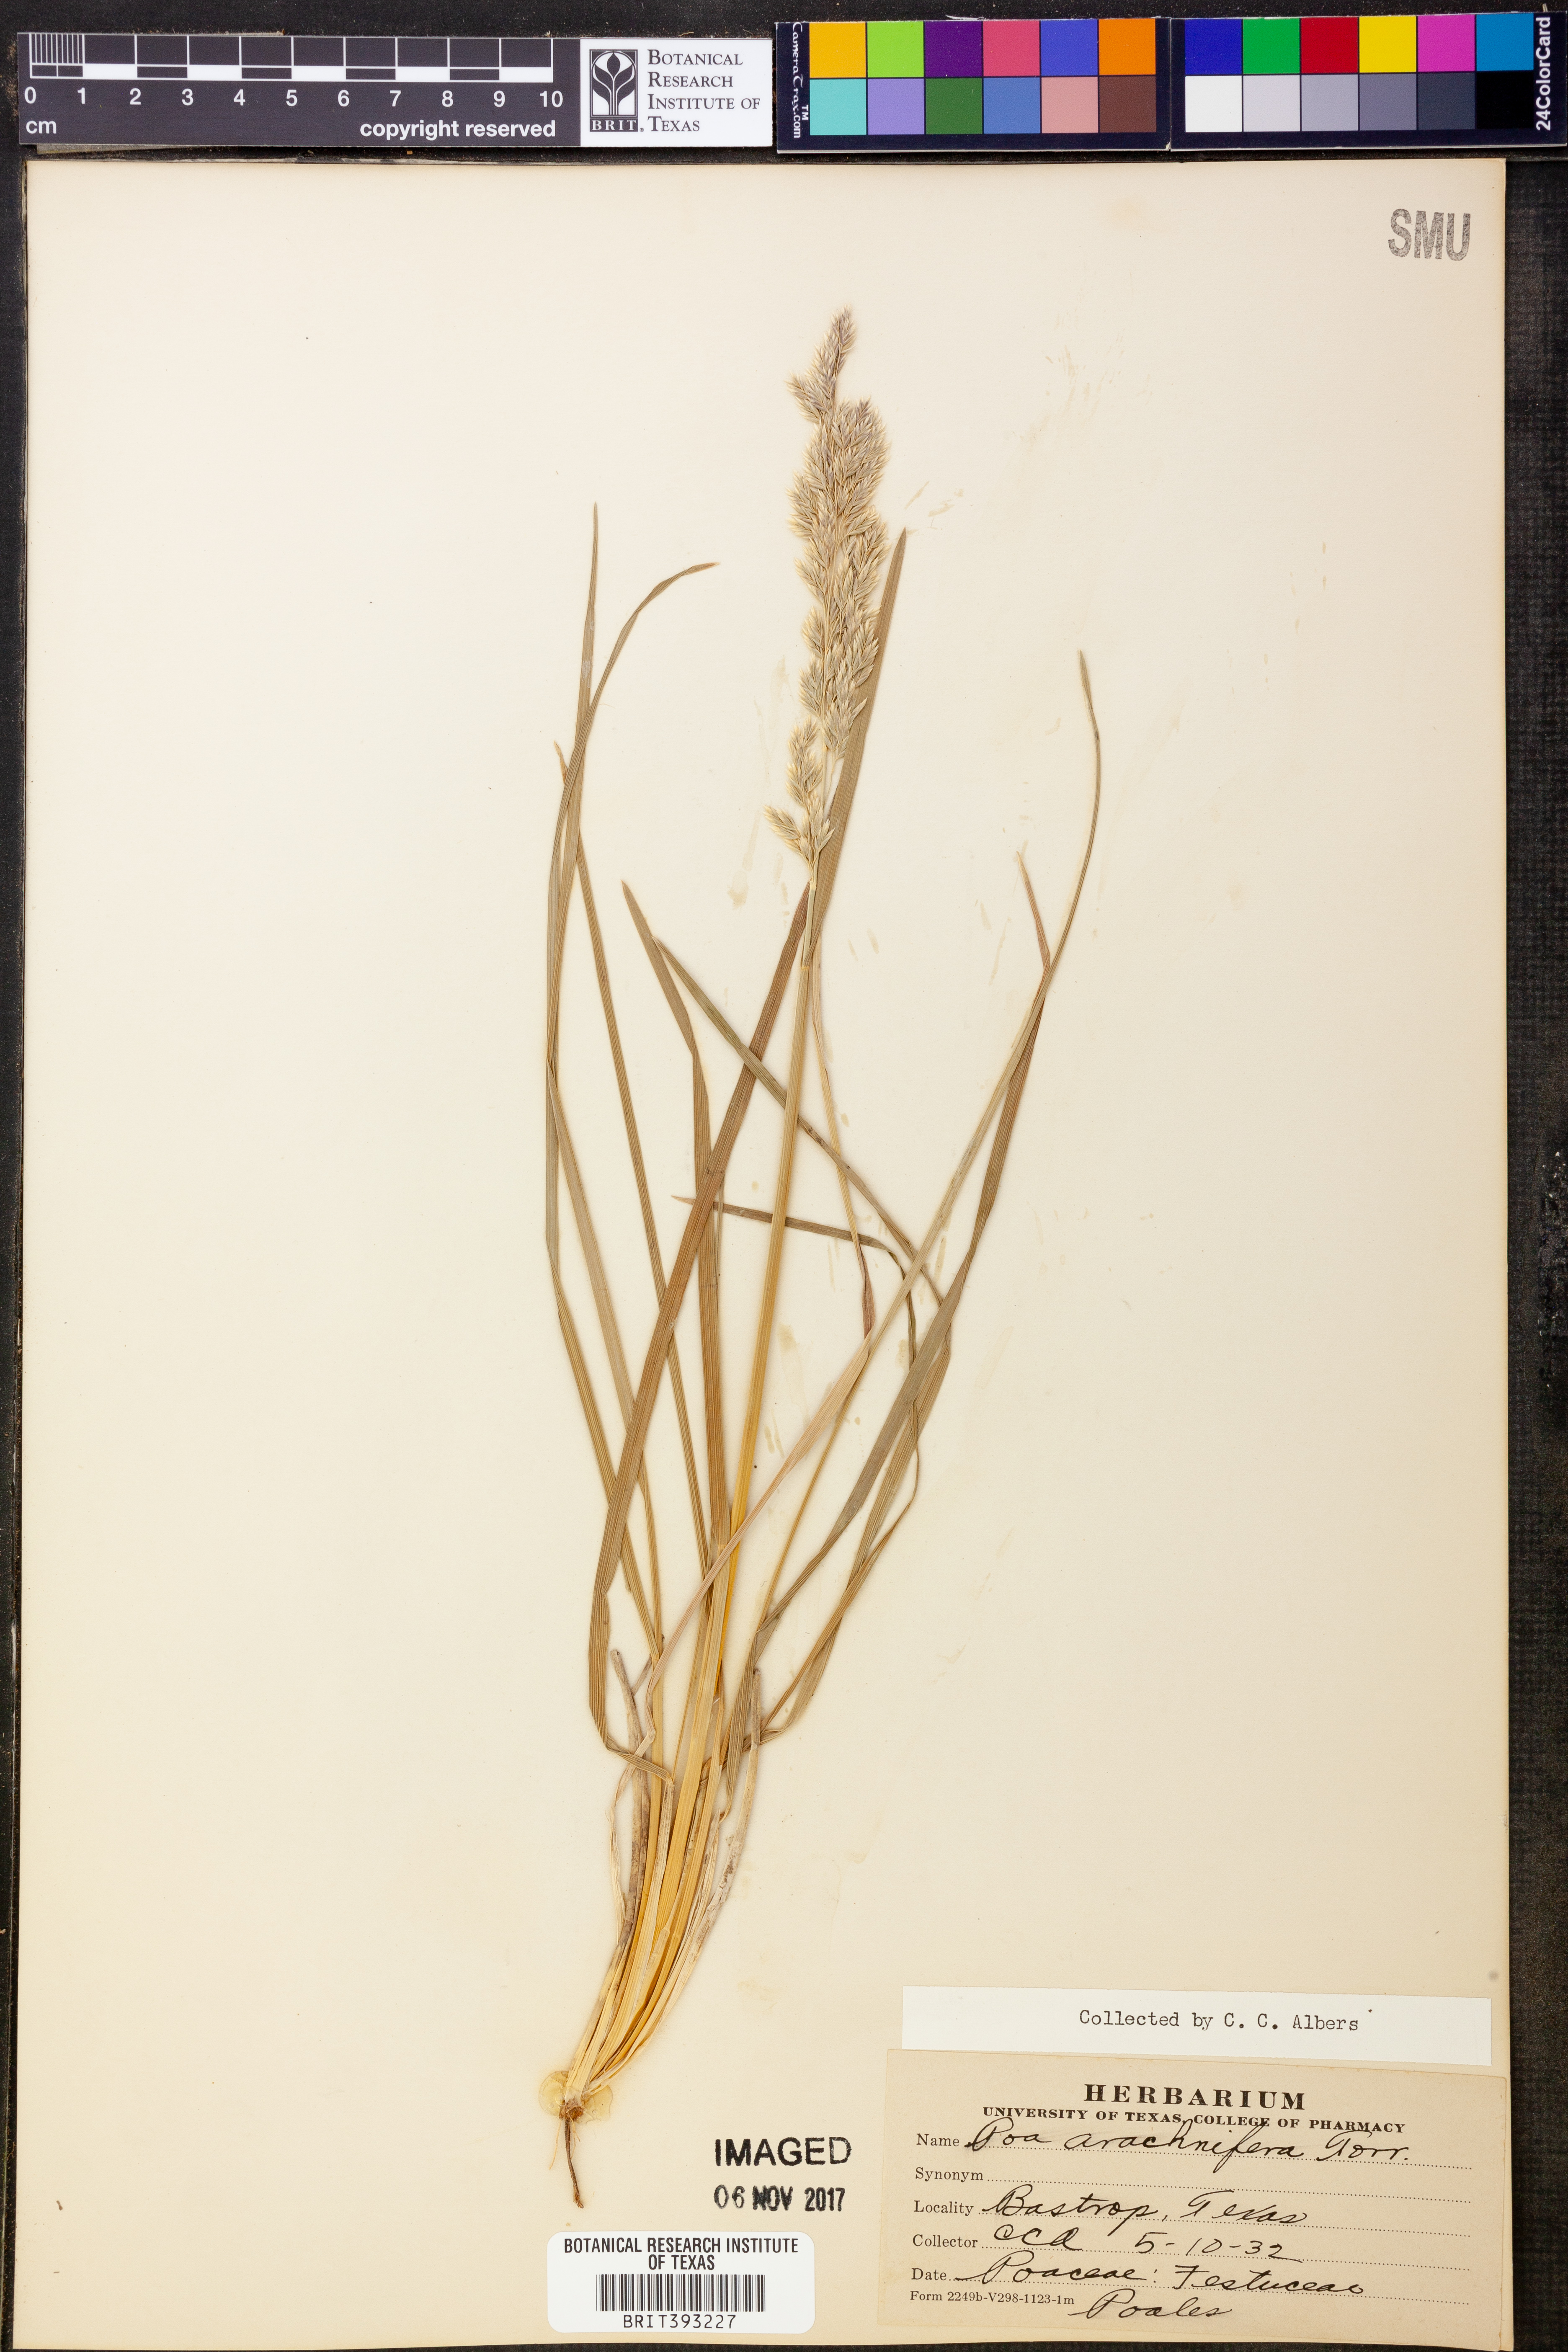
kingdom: Plantae
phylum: Tracheophyta
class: Liliopsida
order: Poales
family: Poaceae
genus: Poa
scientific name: Poa arachnifera
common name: Texas bluegrass
